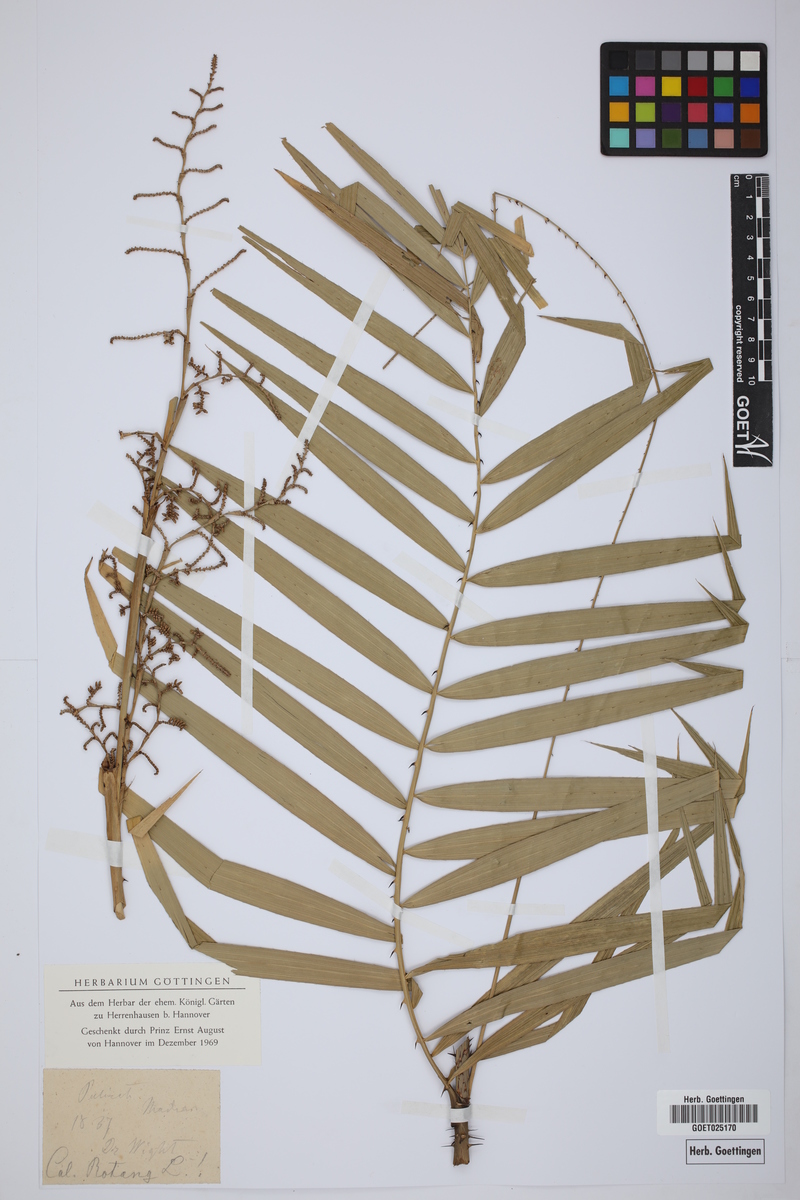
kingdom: Plantae
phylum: Tracheophyta
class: Liliopsida
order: Arecales
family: Arecaceae
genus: Calamus
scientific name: Calamus rotang
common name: Rattan cane
